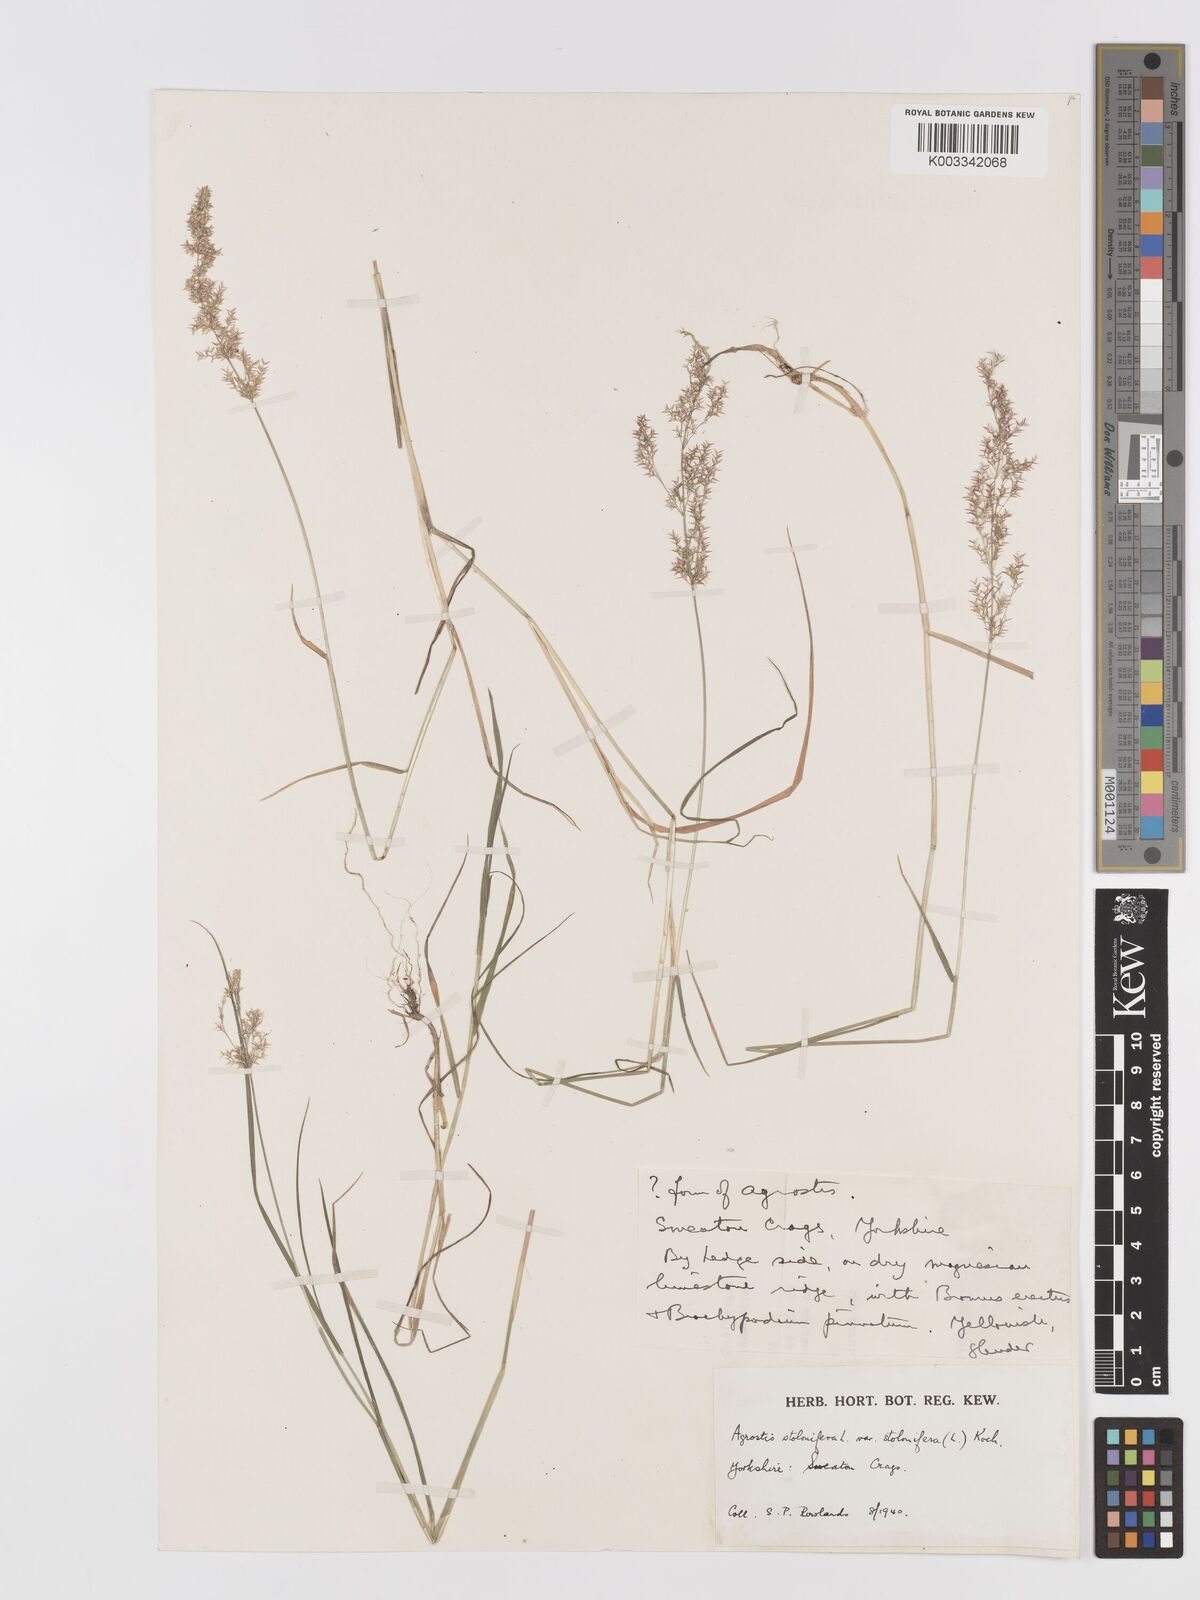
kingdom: Plantae
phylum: Tracheophyta
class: Liliopsida
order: Poales
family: Poaceae
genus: Agrostis
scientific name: Agrostis stolonifera
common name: Creeping bentgrass
